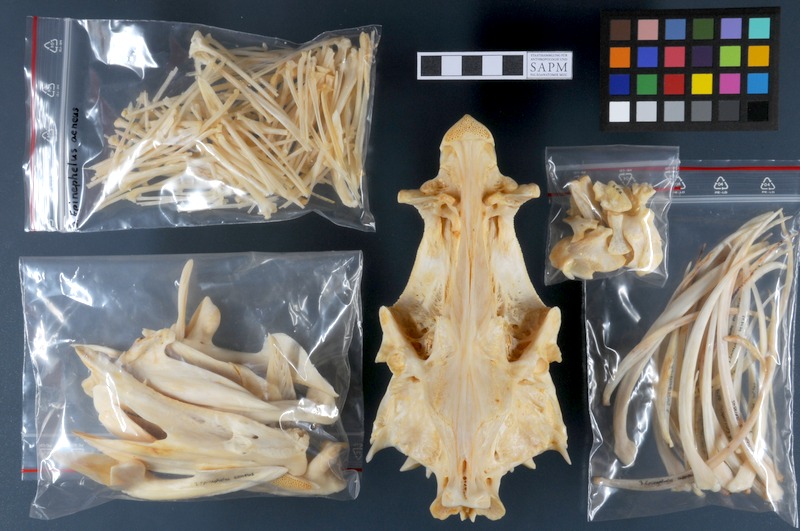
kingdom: Animalia
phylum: Chordata
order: Perciformes
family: Serranidae
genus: Epinephelus
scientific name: Epinephelus aeneus
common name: White grouper
